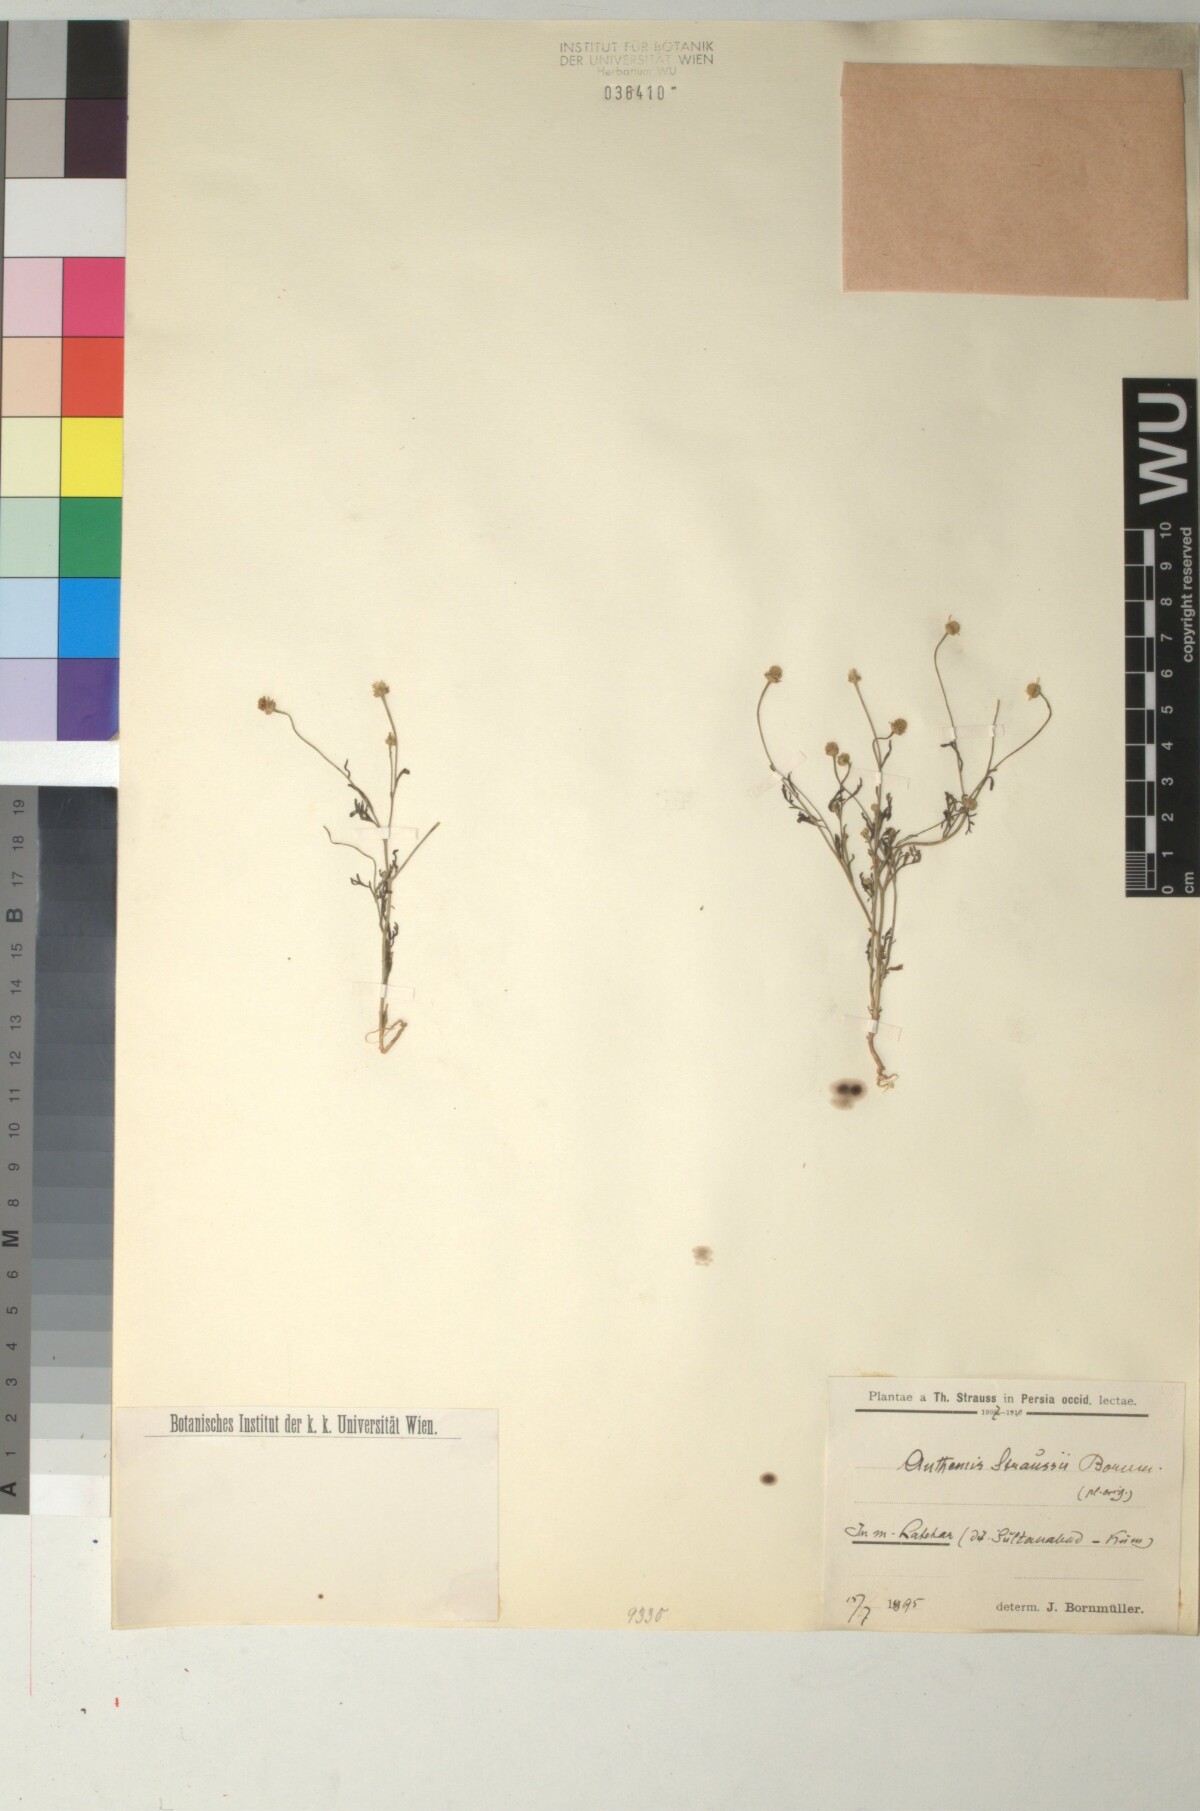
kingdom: Plantae
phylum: Tracheophyta
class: Magnoliopsida
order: Asterales
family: Asteraceae
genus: Anthemis
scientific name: Anthemis microcephala
